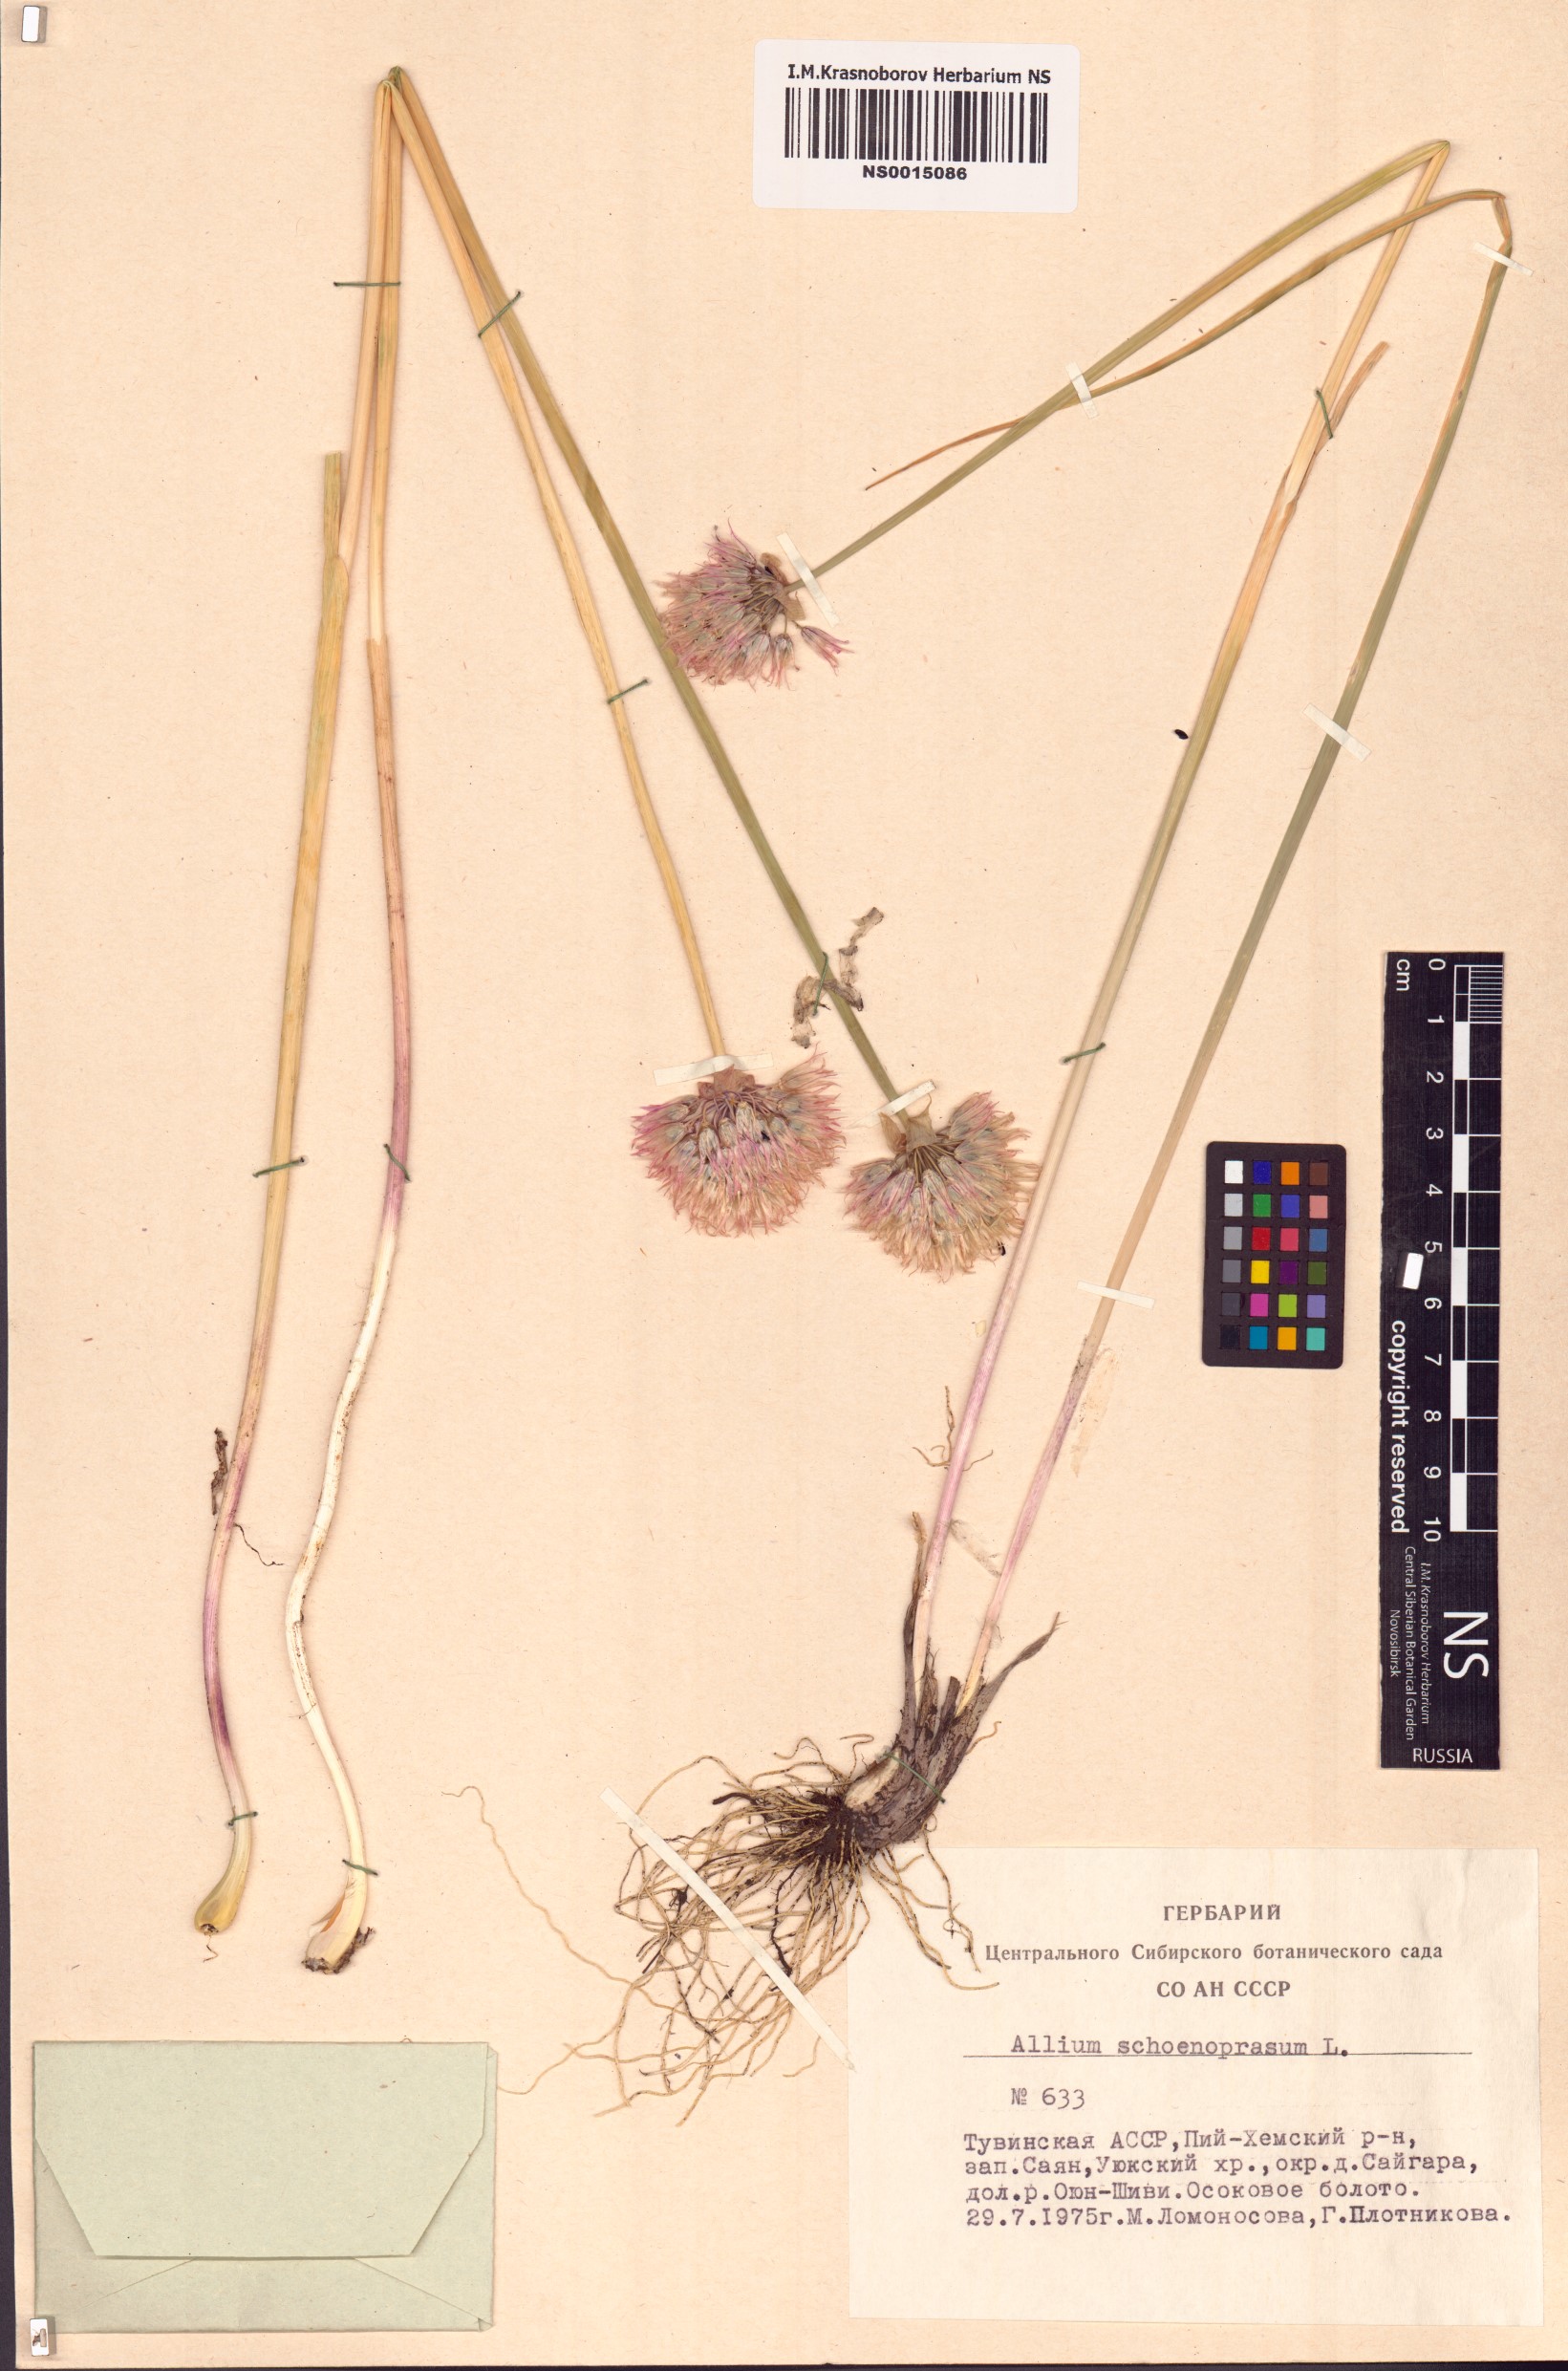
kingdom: Plantae
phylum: Tracheophyta
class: Liliopsida
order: Asparagales
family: Amaryllidaceae
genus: Allium
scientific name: Allium schoenoprasum
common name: Chives
